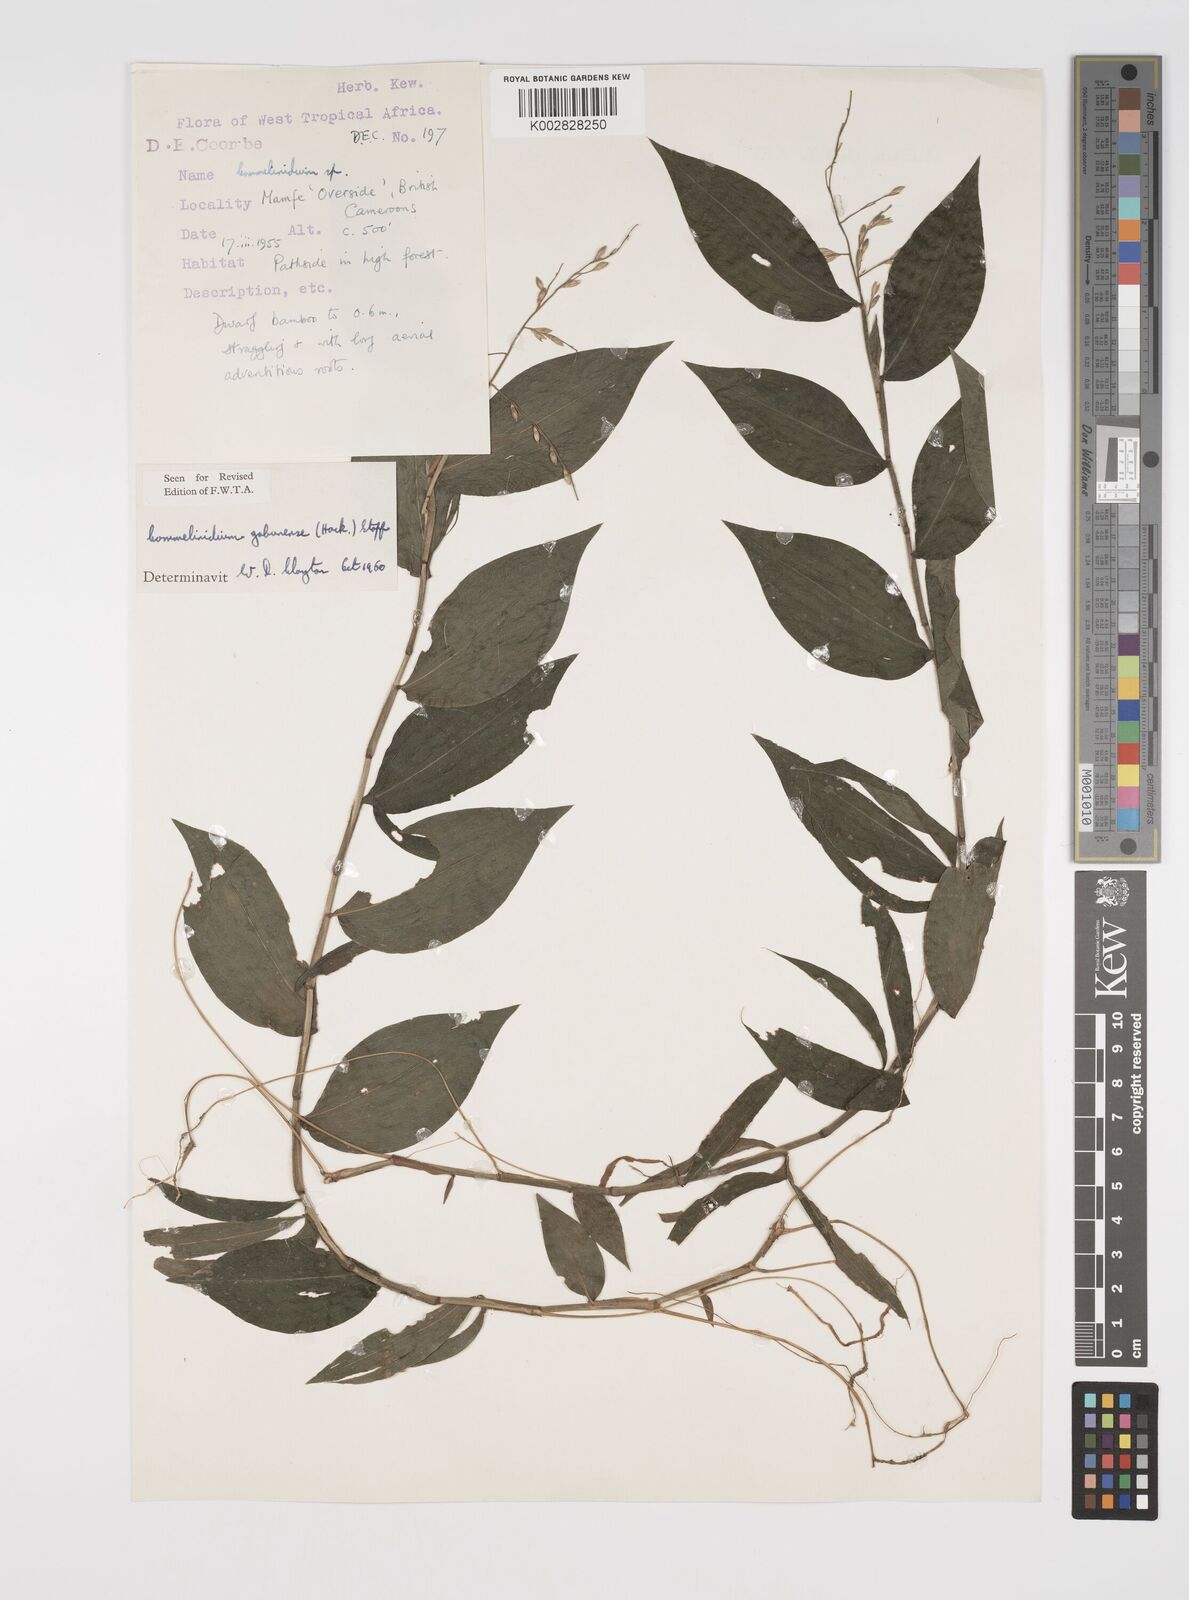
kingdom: Plantae
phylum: Tracheophyta
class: Liliopsida
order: Poales
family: Poaceae
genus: Acroceras
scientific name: Acroceras gabunense
